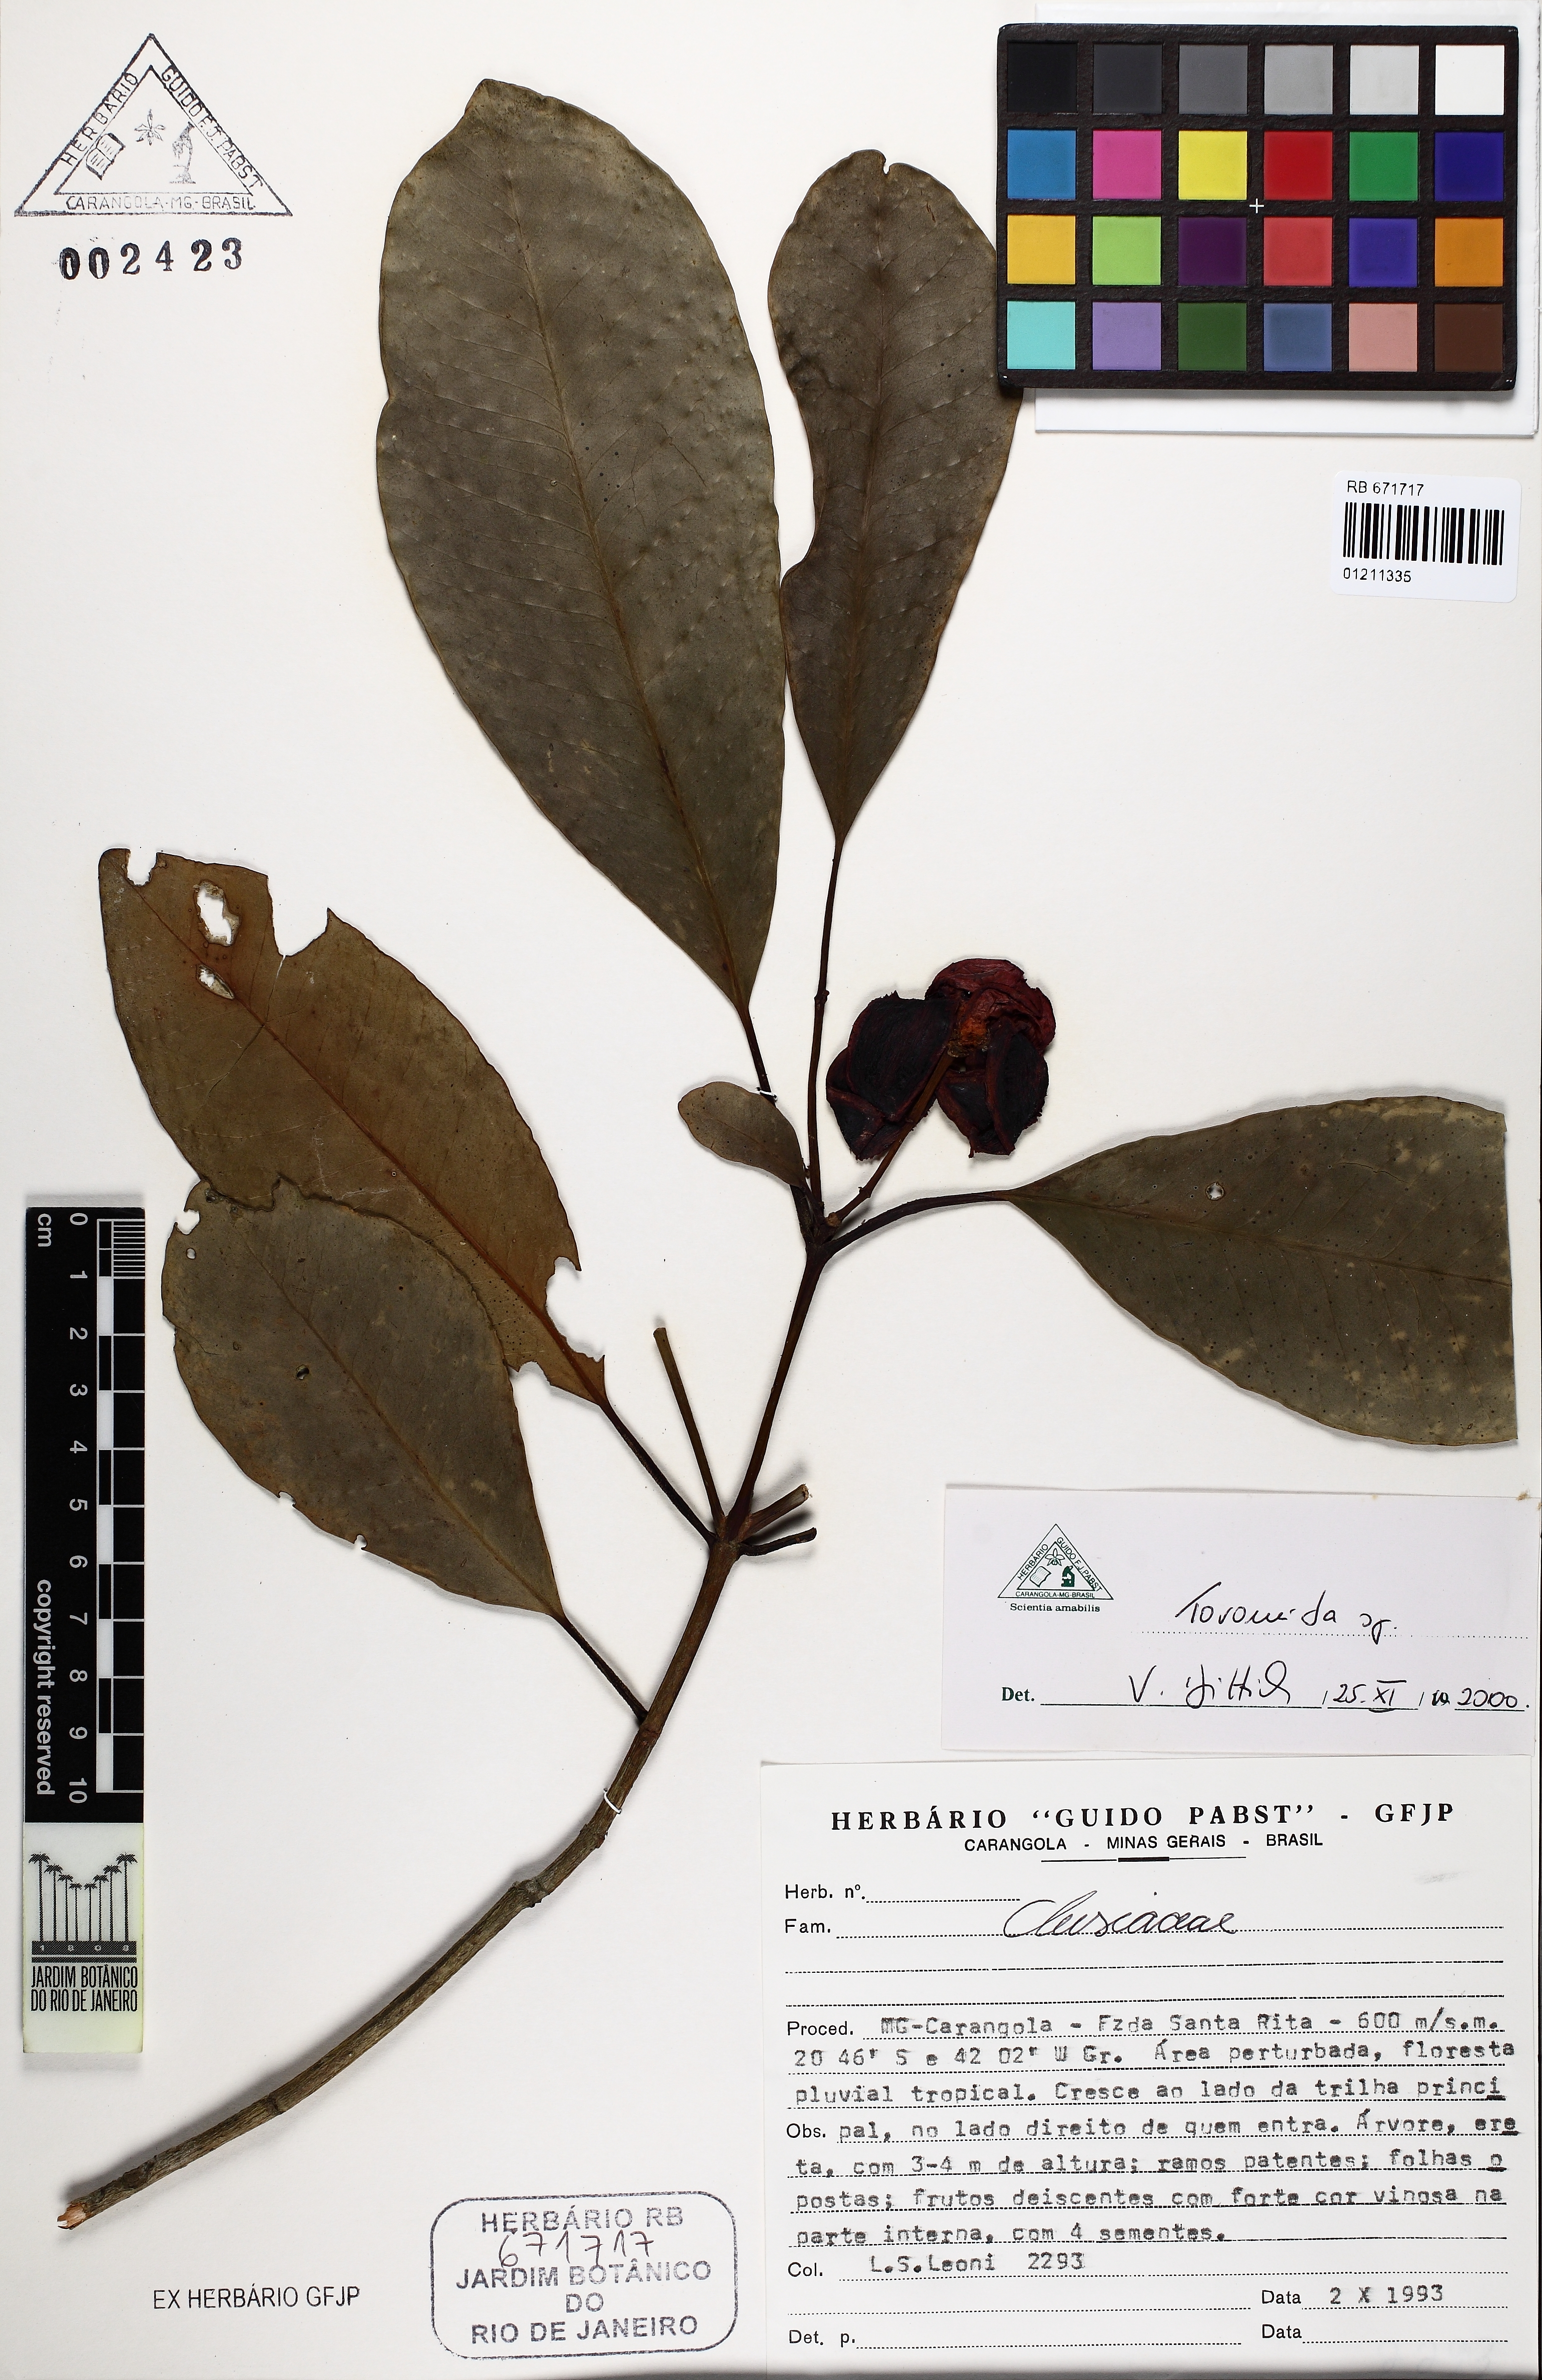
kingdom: Plantae
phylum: Tracheophyta
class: Magnoliopsida
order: Malpighiales
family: Clusiaceae
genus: Tovomita
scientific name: Tovomita
